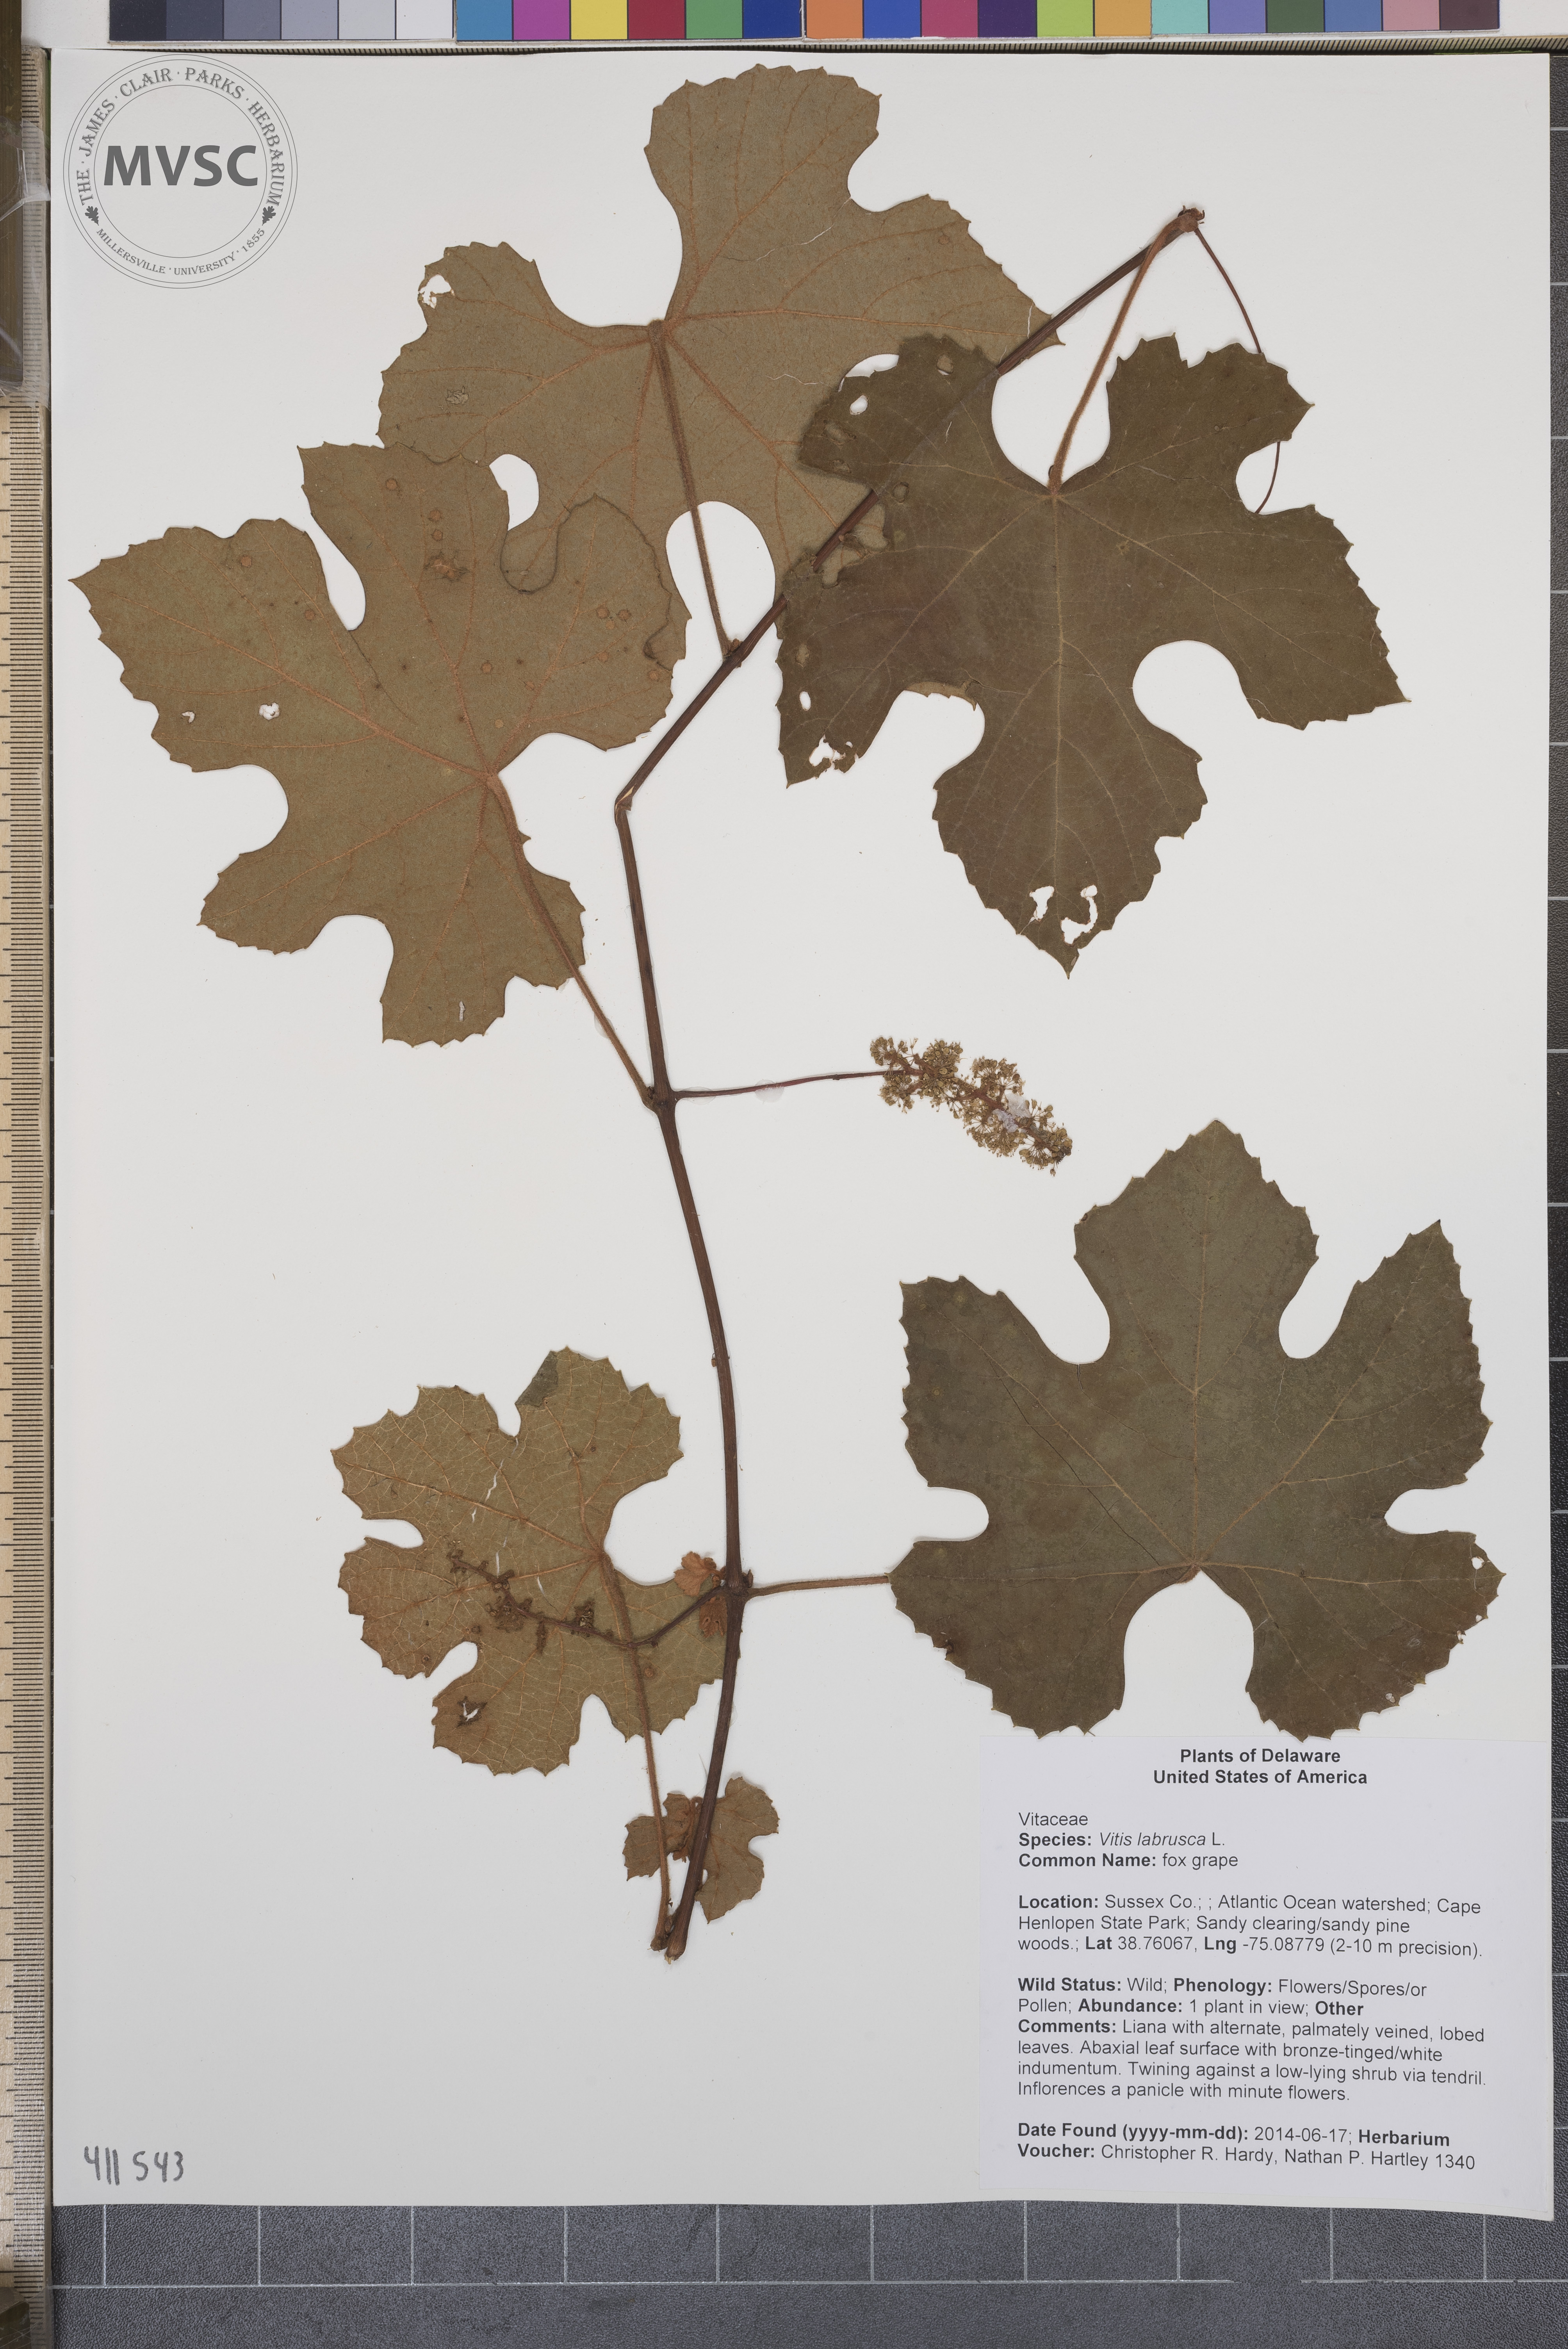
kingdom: Plantae
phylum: Tracheophyta
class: Magnoliopsida
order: Vitales
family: Vitaceae
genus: Vitis
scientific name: Vitis labrusca
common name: fox grape
